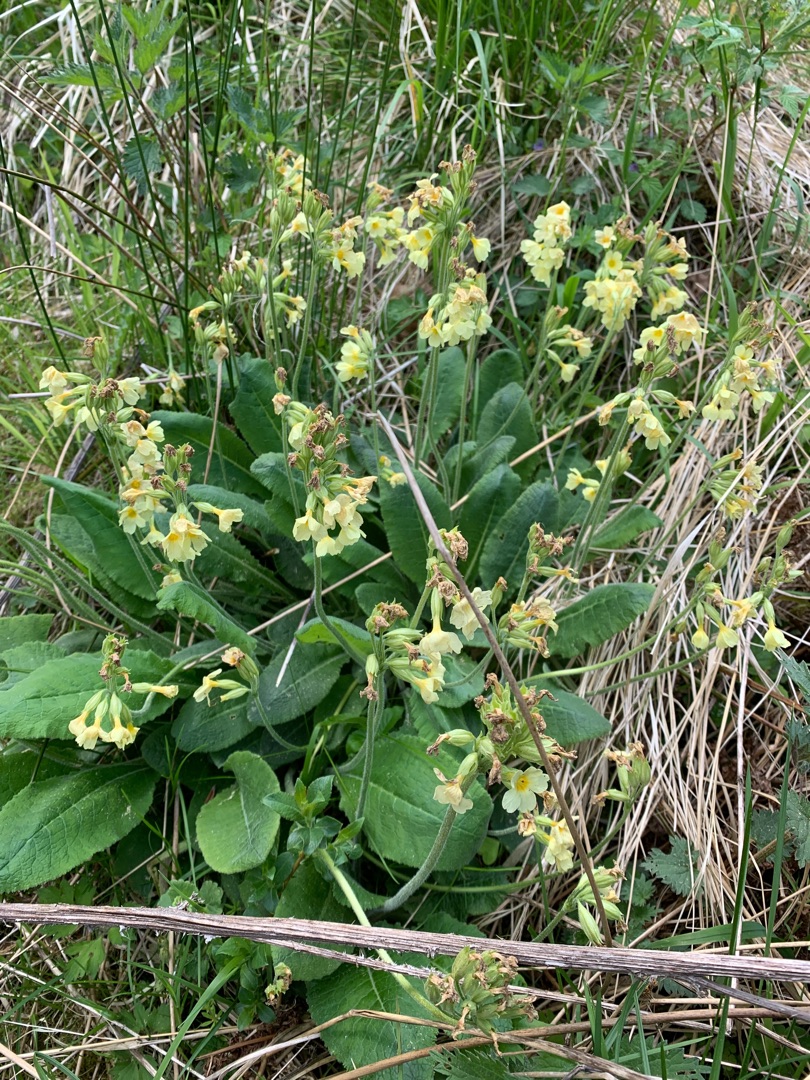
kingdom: Plantae
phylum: Tracheophyta
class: Magnoliopsida
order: Ericales
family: Primulaceae
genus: Primula
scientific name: Primula elatior
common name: Fladkravet kodriver
